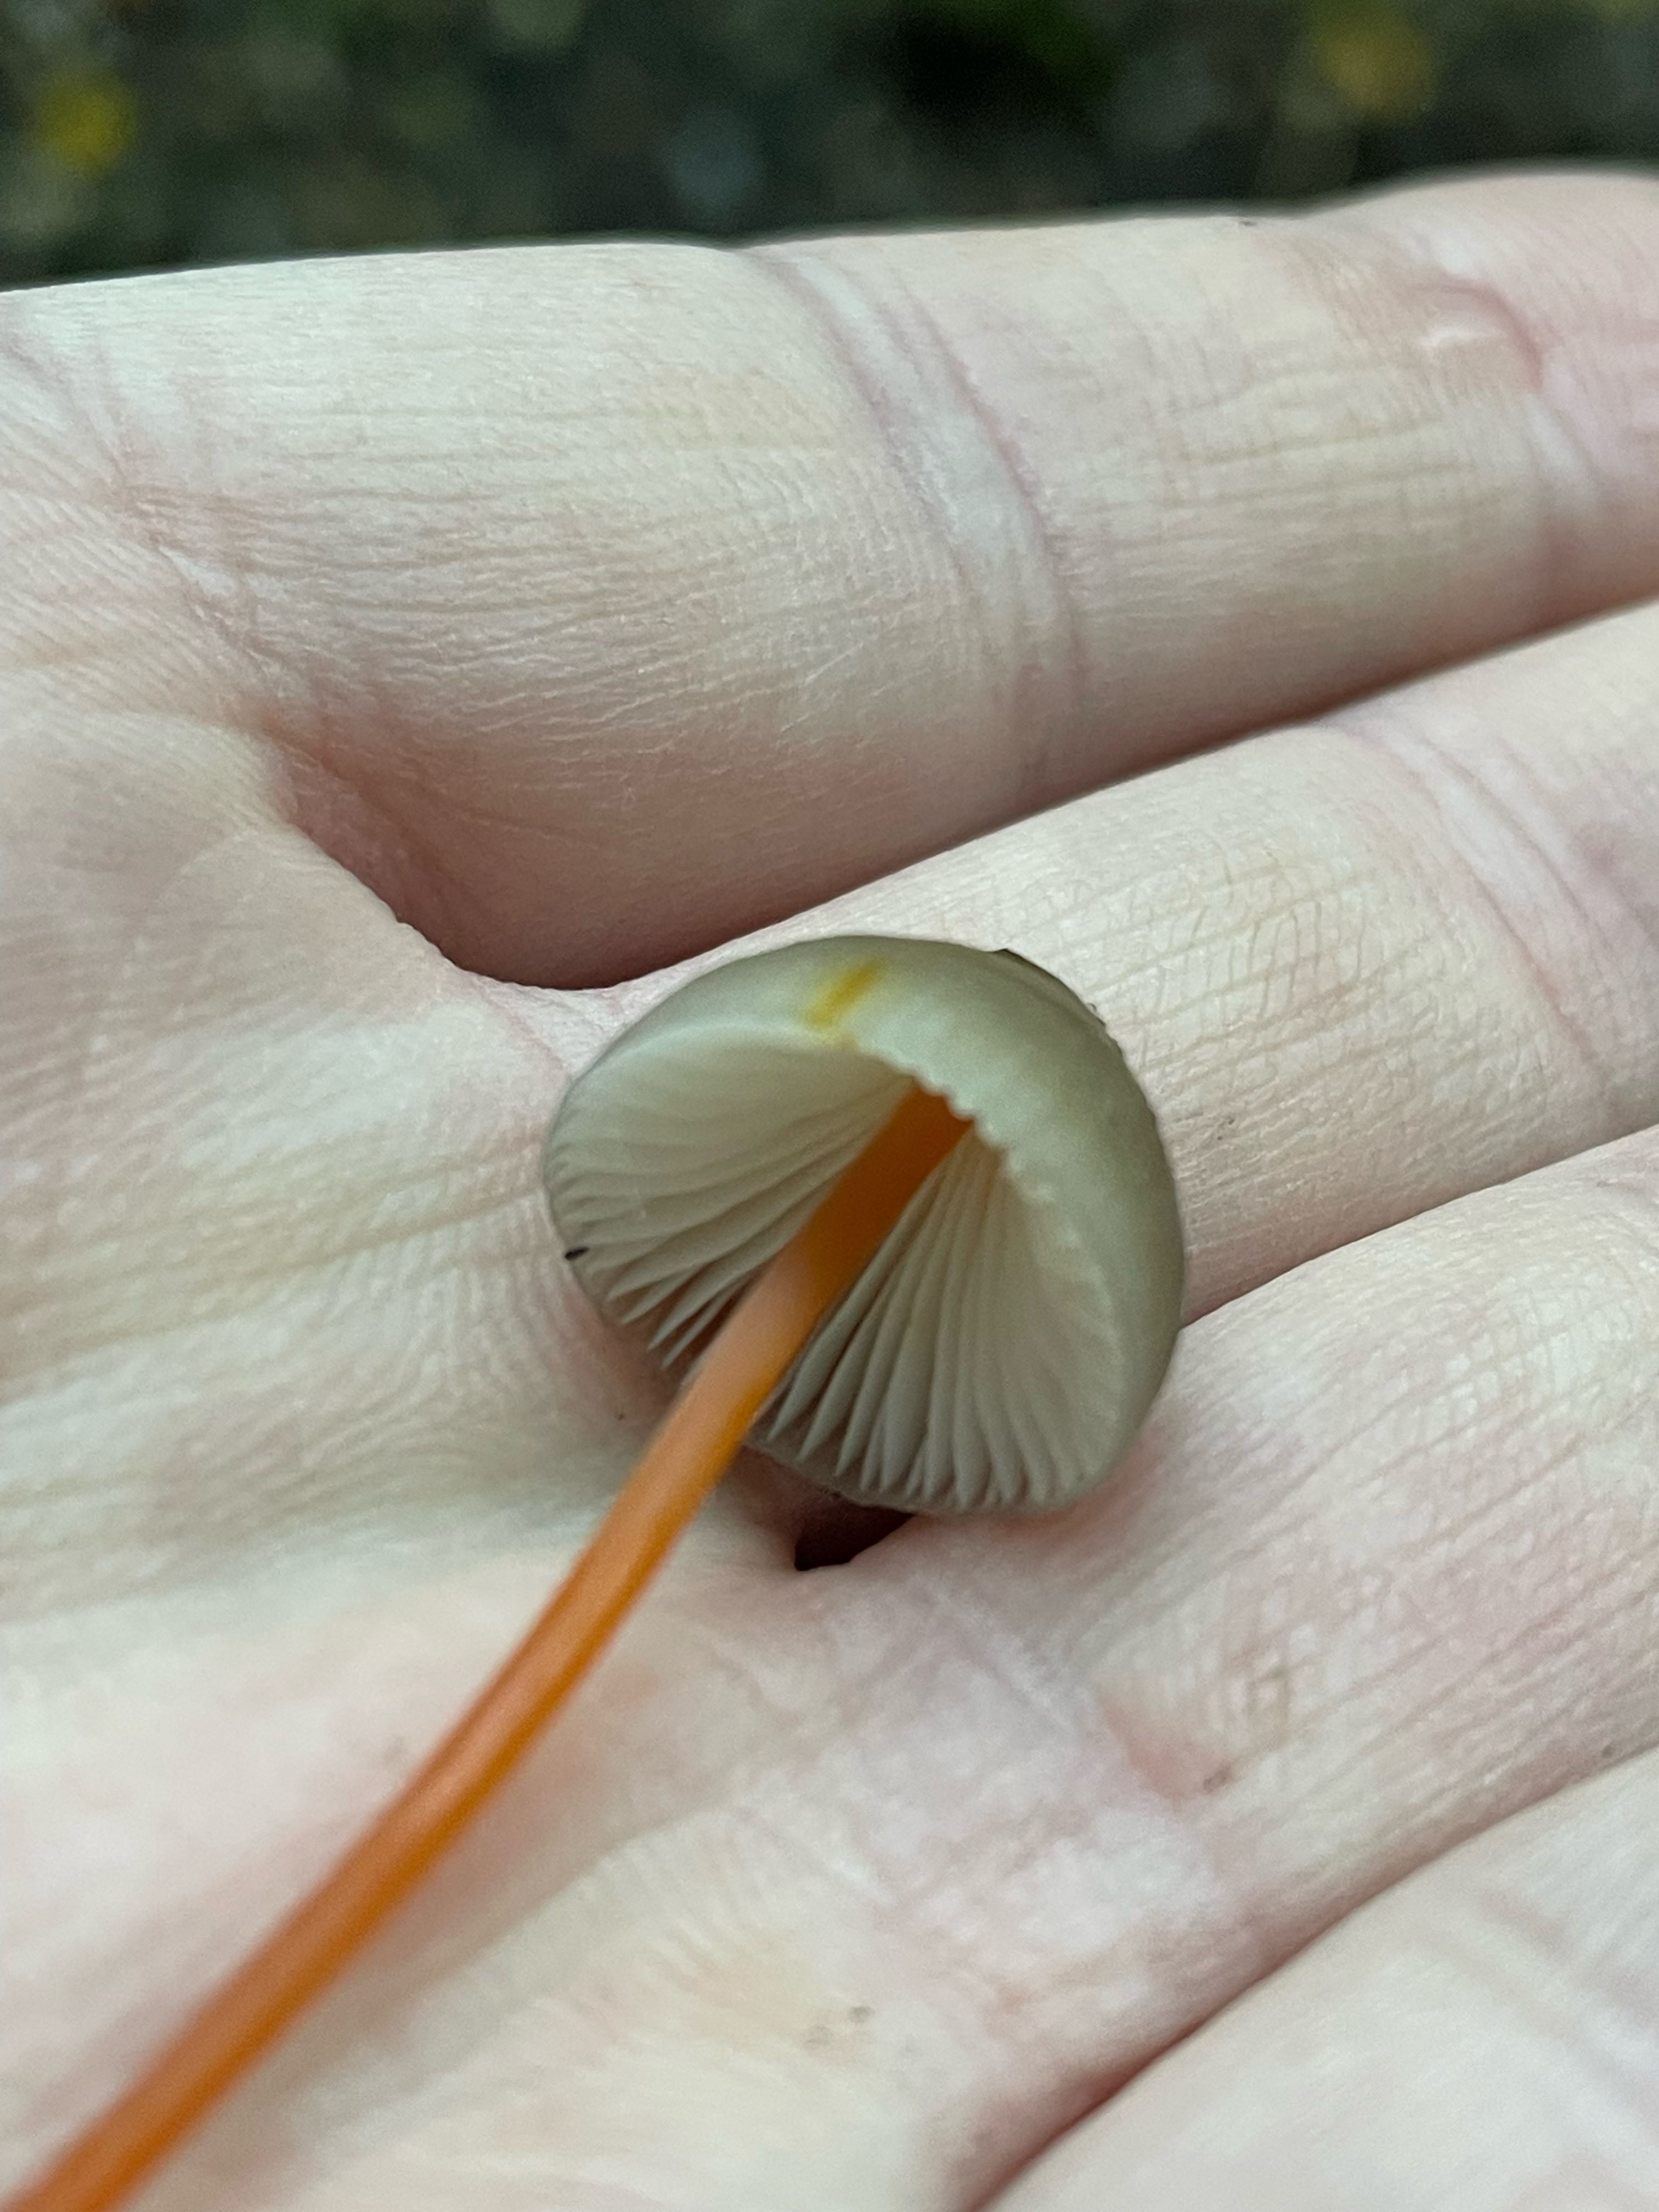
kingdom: Fungi
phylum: Basidiomycota
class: Agaricomycetes
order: Agaricales
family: Mycenaceae
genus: Mycena
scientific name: Mycena crocata
